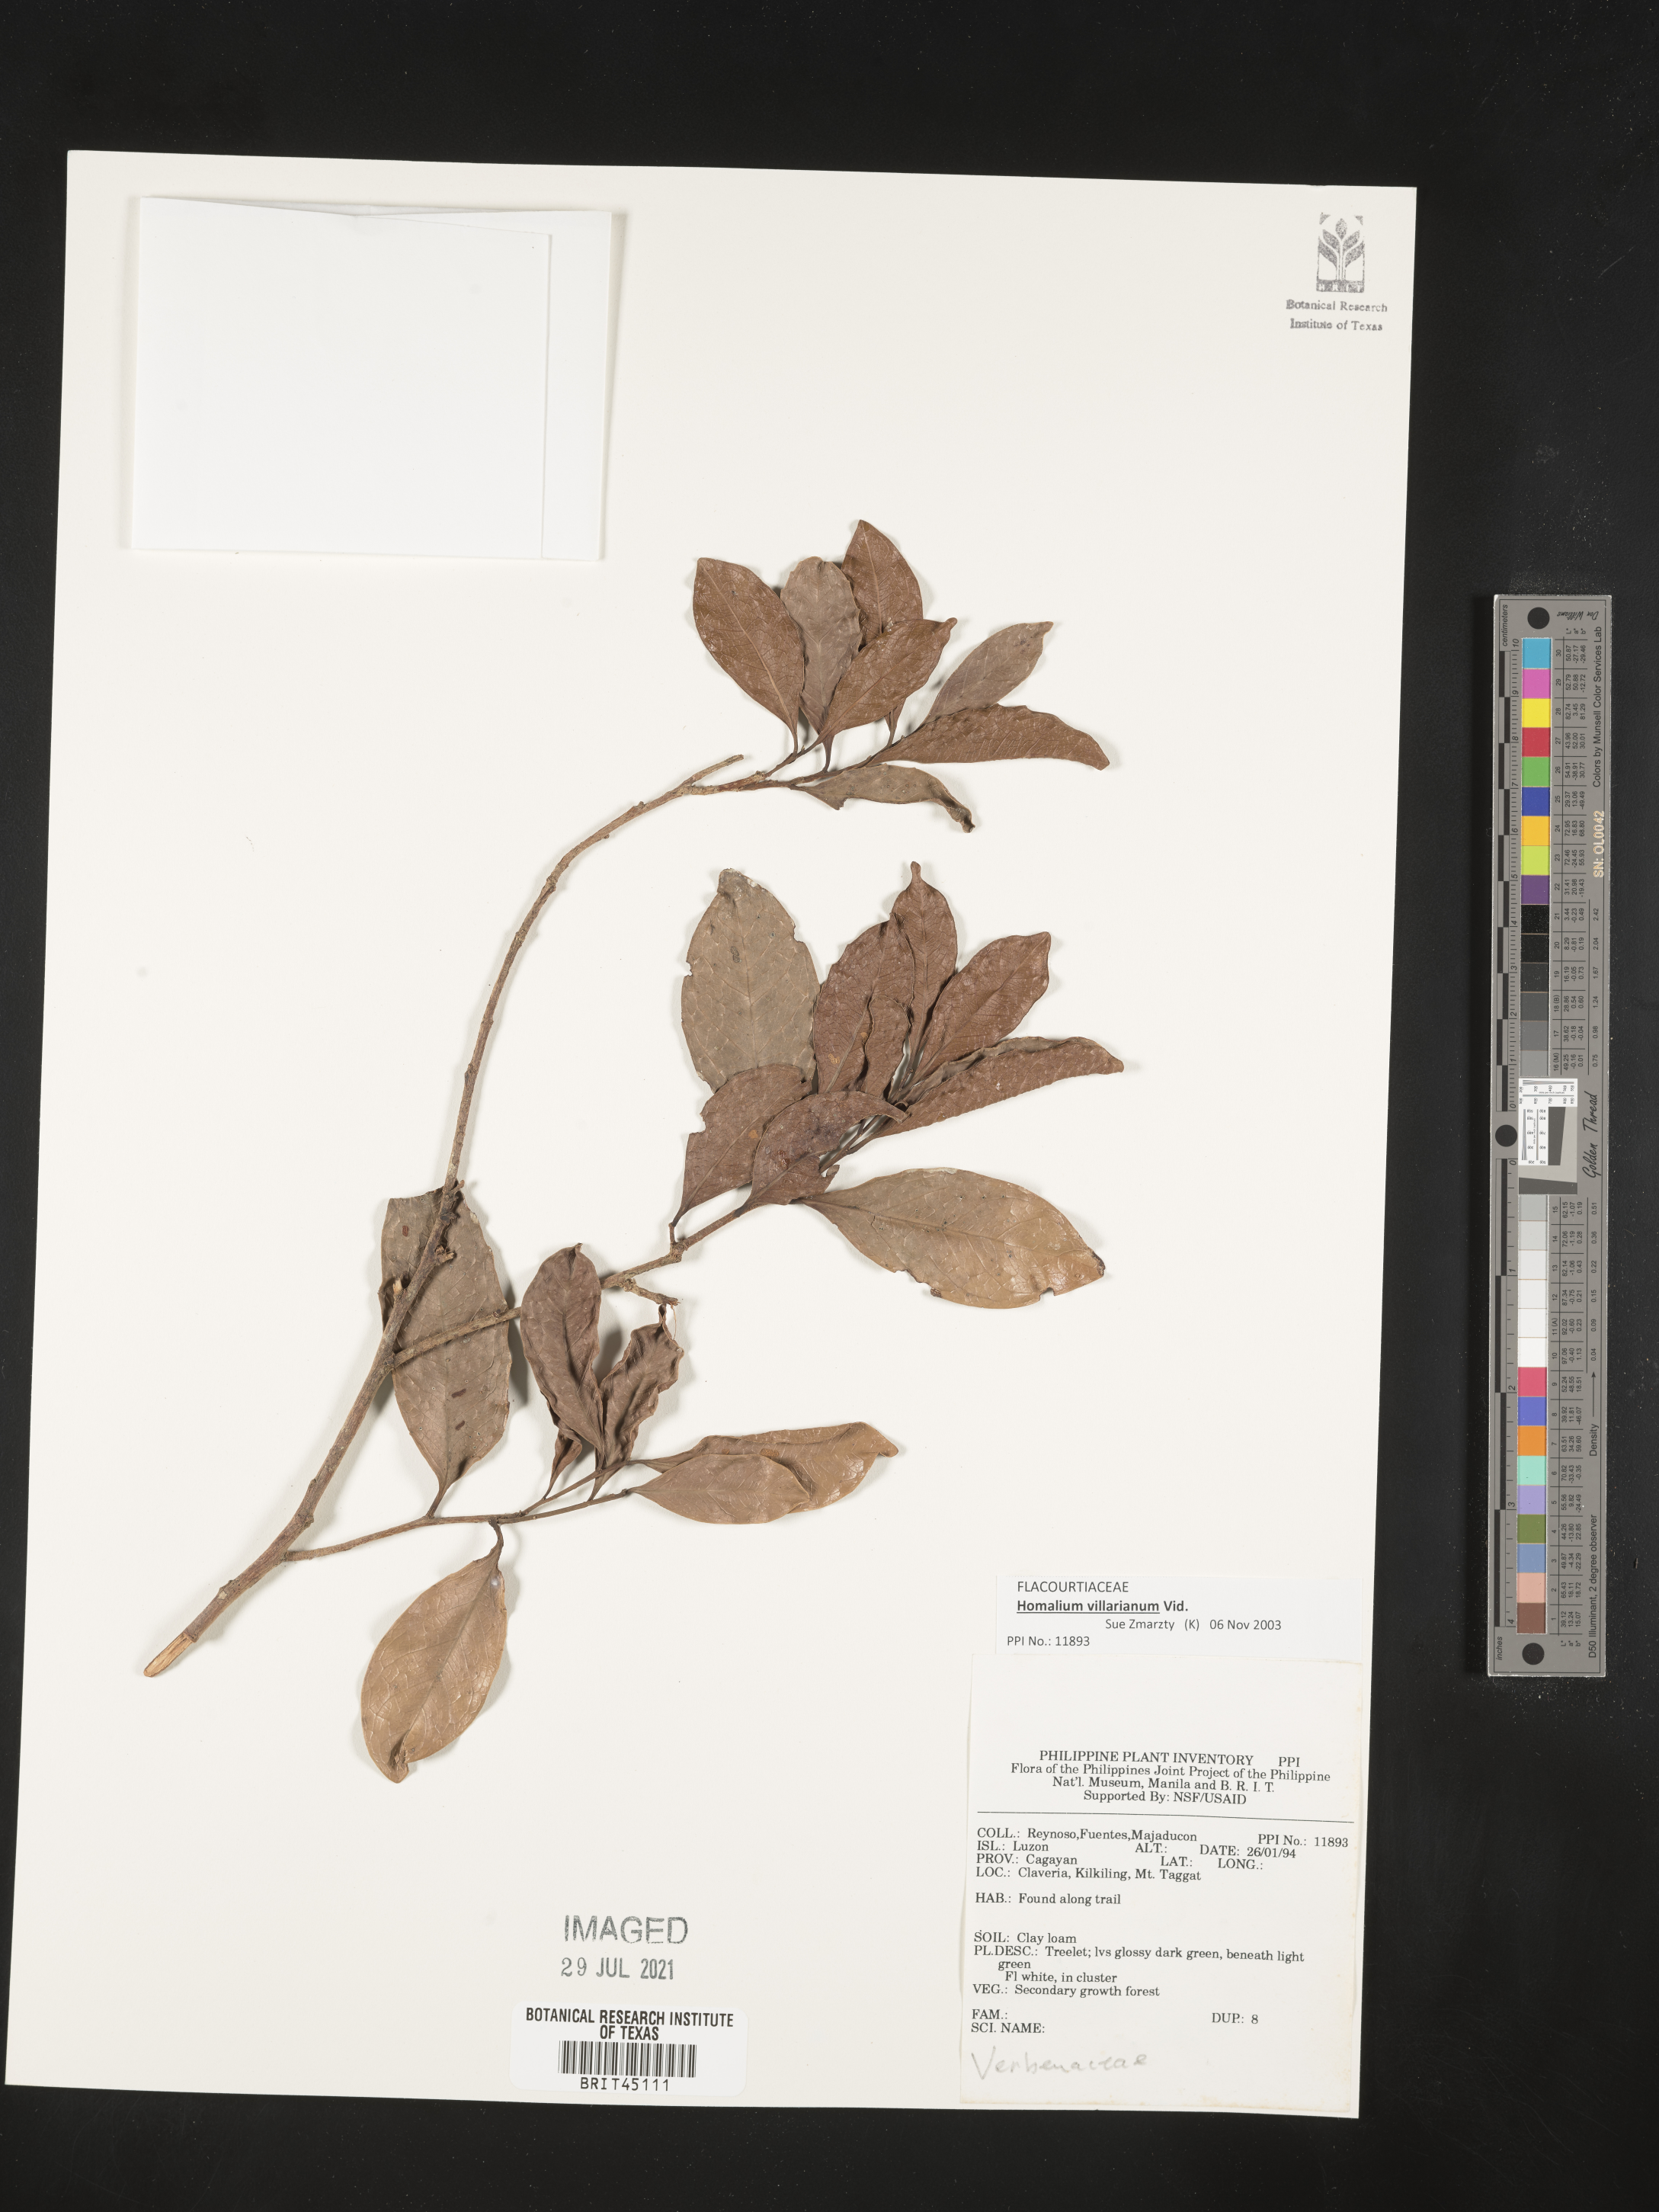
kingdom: Plantae
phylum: Tracheophyta
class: Magnoliopsida
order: Lamiales
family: Verbenaceae
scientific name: Verbenaceae
